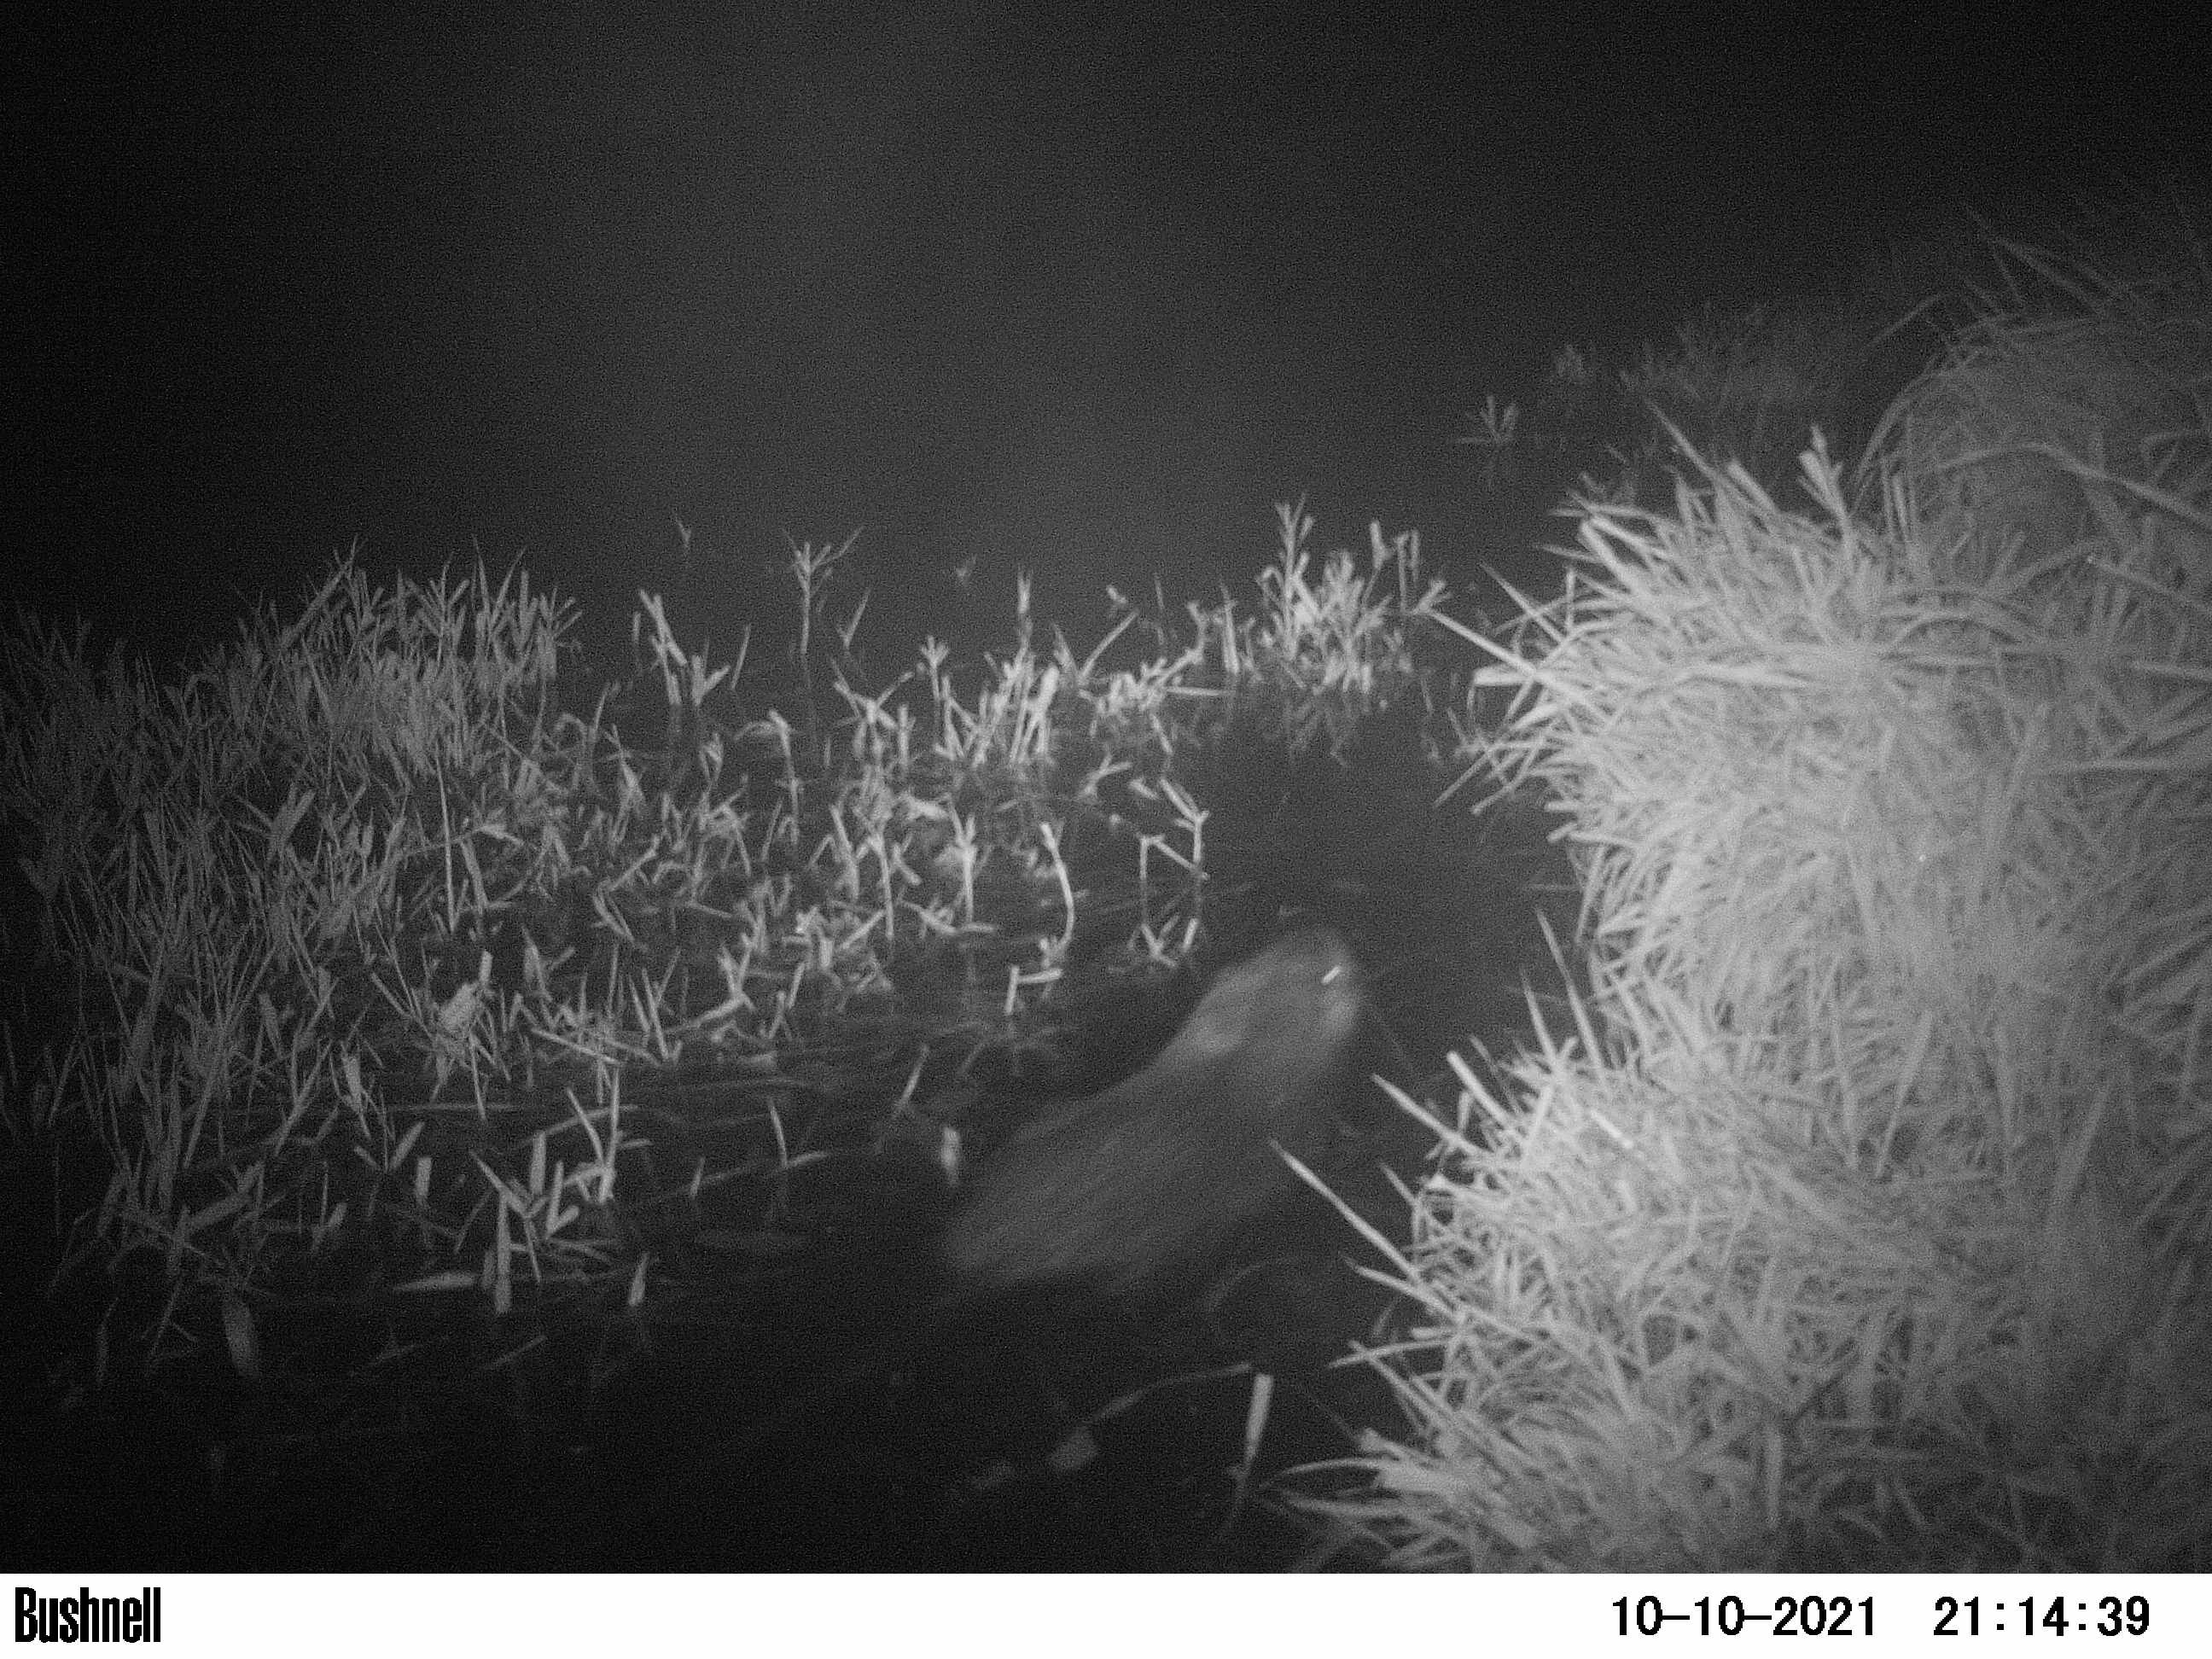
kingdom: Animalia
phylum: Chordata
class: Mammalia
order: Rodentia
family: Myocastoridae
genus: Myocastor
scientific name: Myocastor coypus
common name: Coypu
